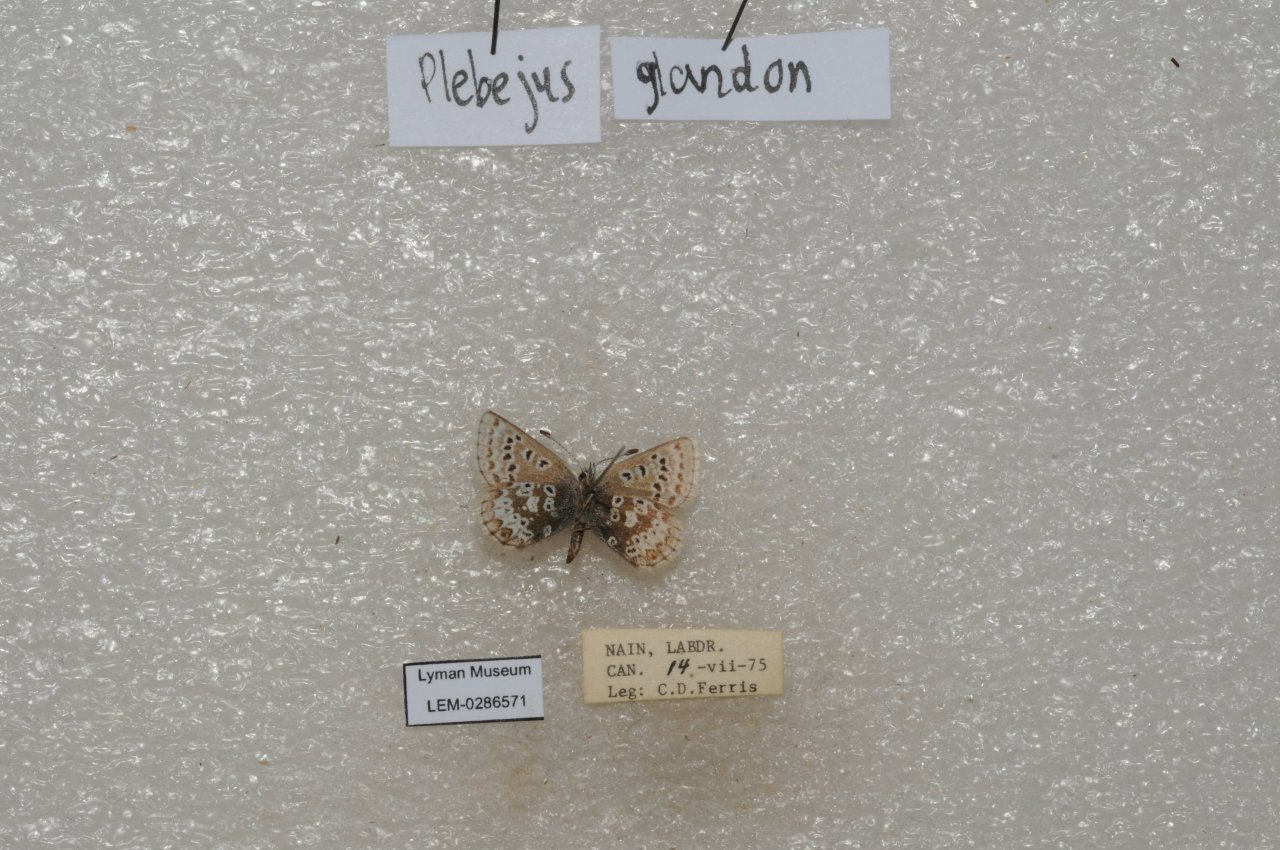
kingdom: Animalia
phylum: Arthropoda
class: Insecta
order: Lepidoptera
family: Lycaenidae
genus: Agriades
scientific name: Agriades glandon
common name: Arctic Blue
